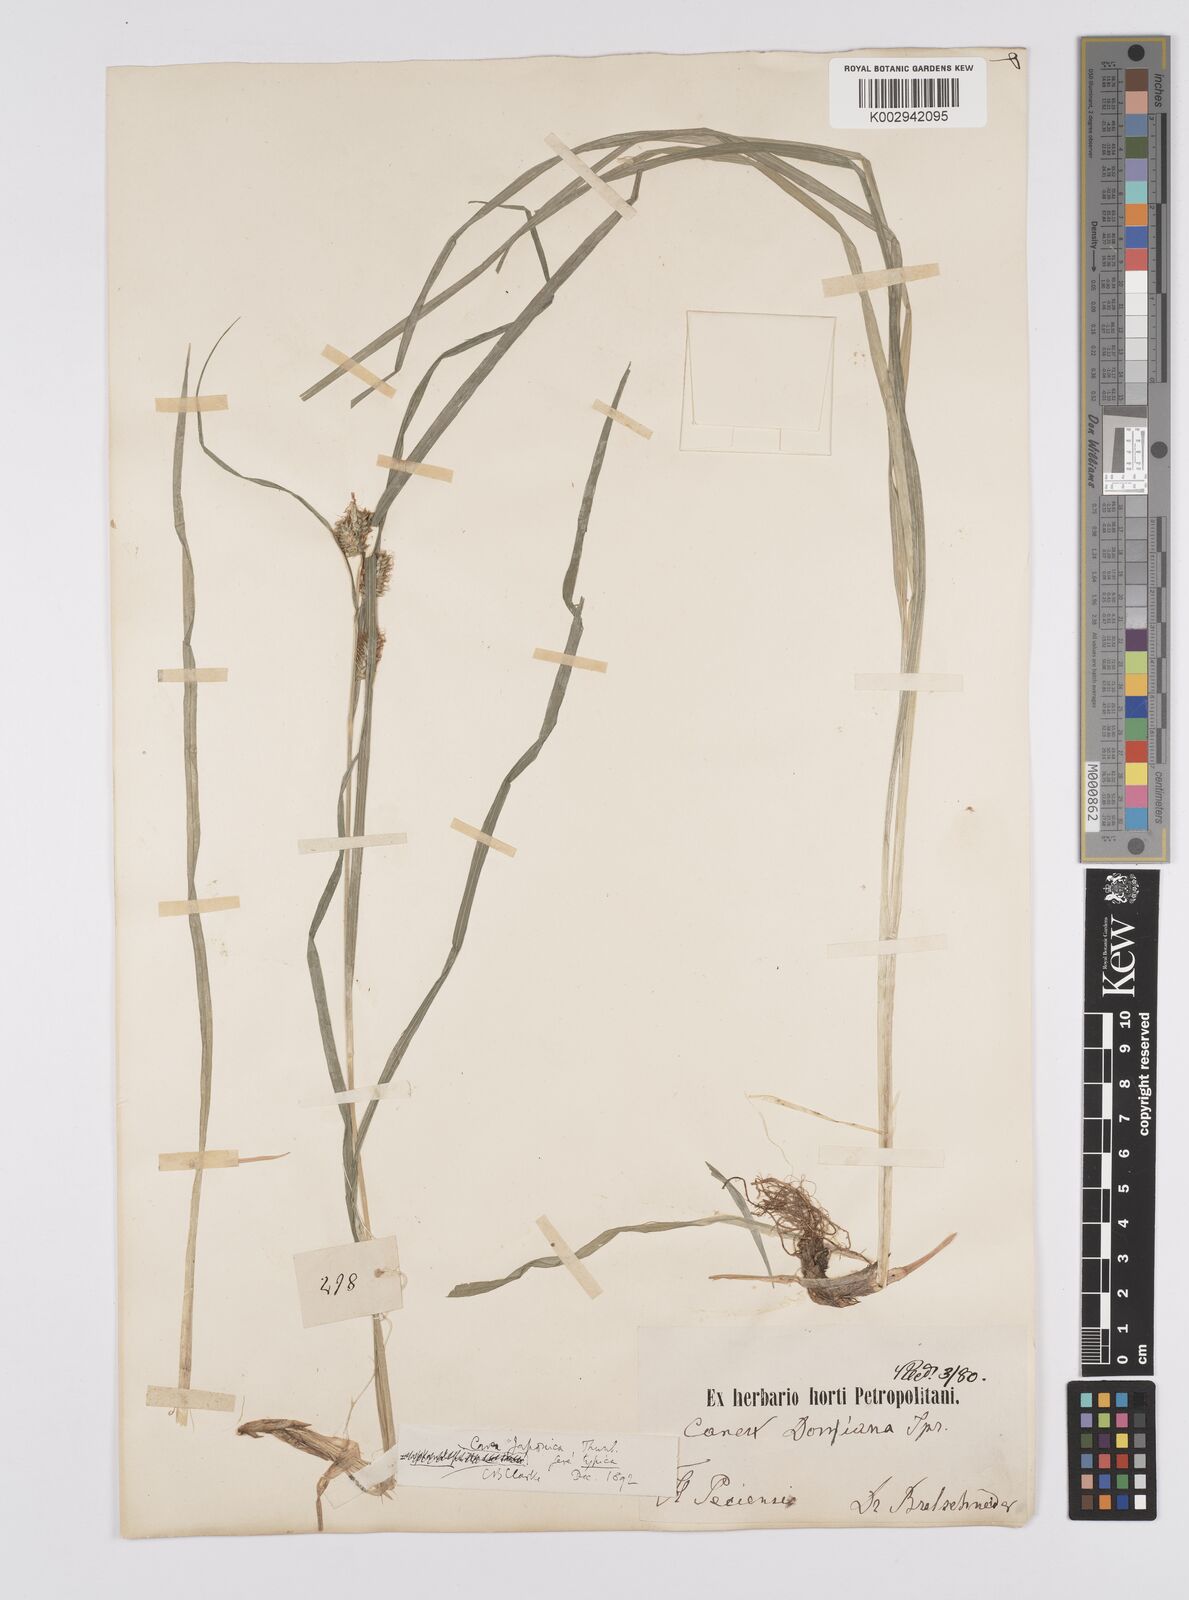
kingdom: Plantae
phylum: Tracheophyta
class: Liliopsida
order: Poales
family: Cyperaceae
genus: Carex
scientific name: Carex japonica
